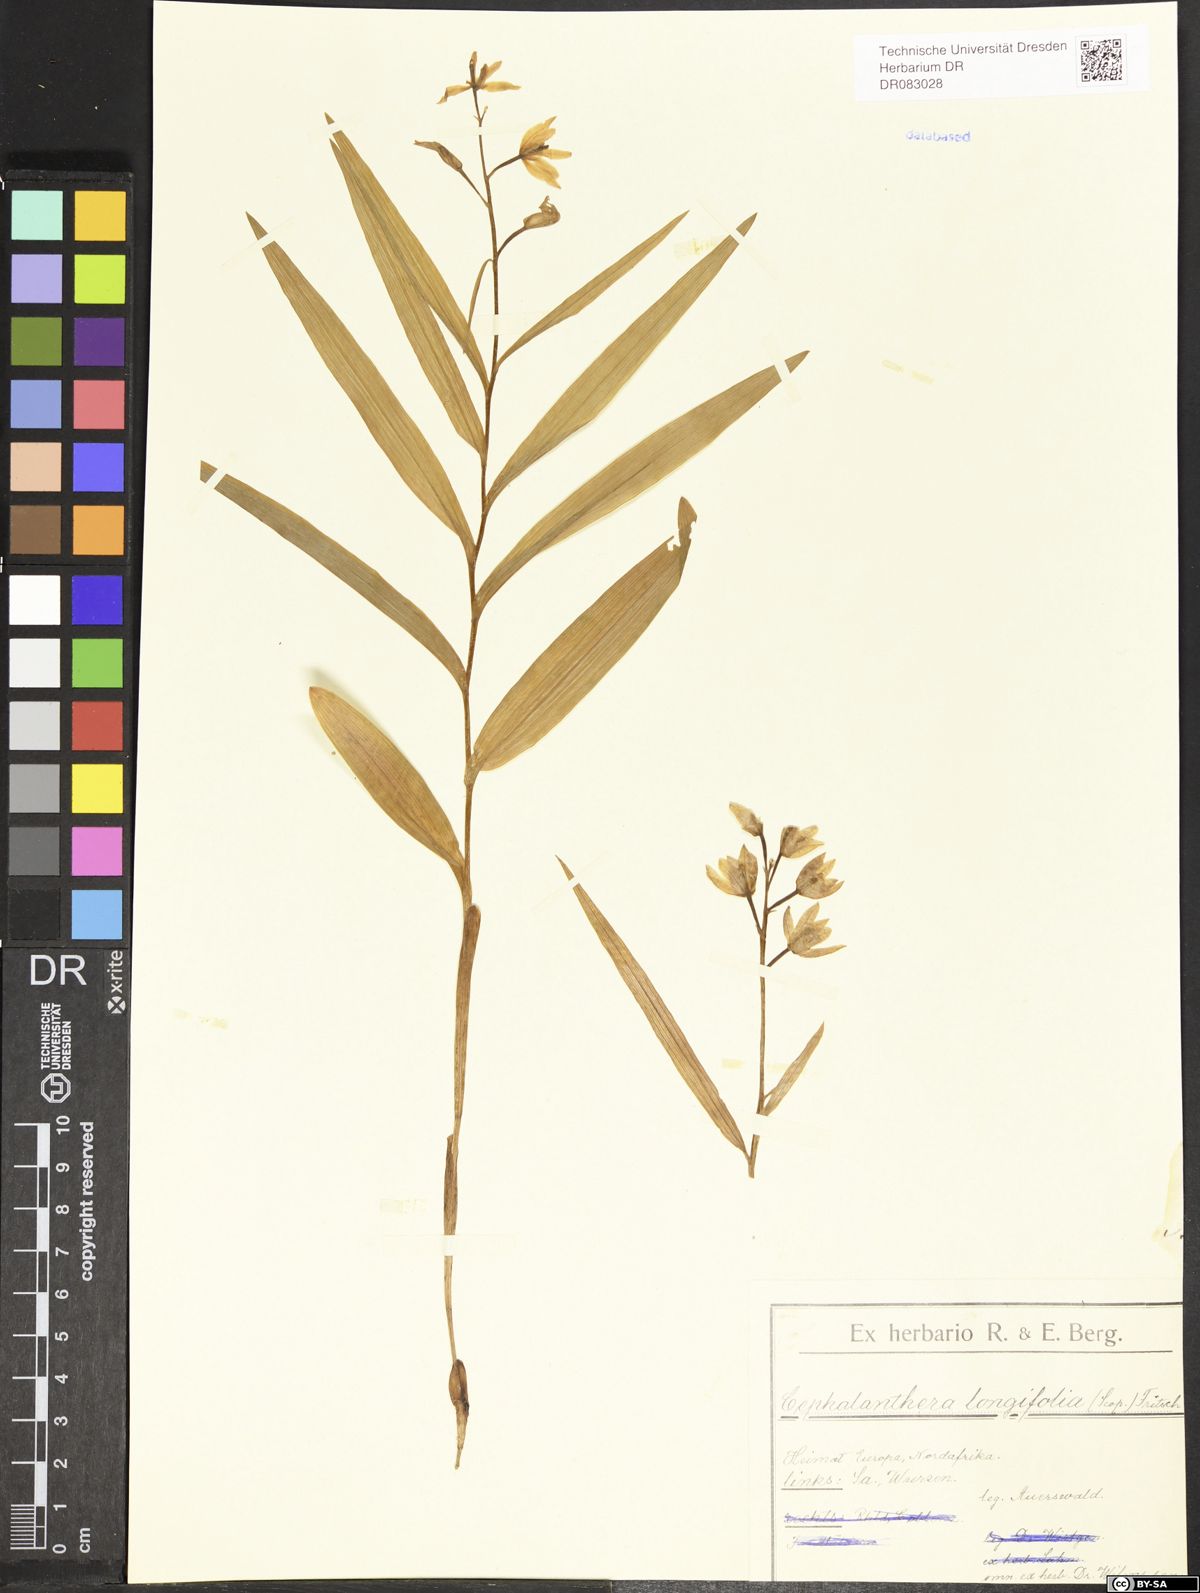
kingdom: Plantae
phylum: Tracheophyta
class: Liliopsida
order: Asparagales
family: Orchidaceae
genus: Cephalanthera
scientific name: Cephalanthera longifolia
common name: Narrow-leaved helleborine
